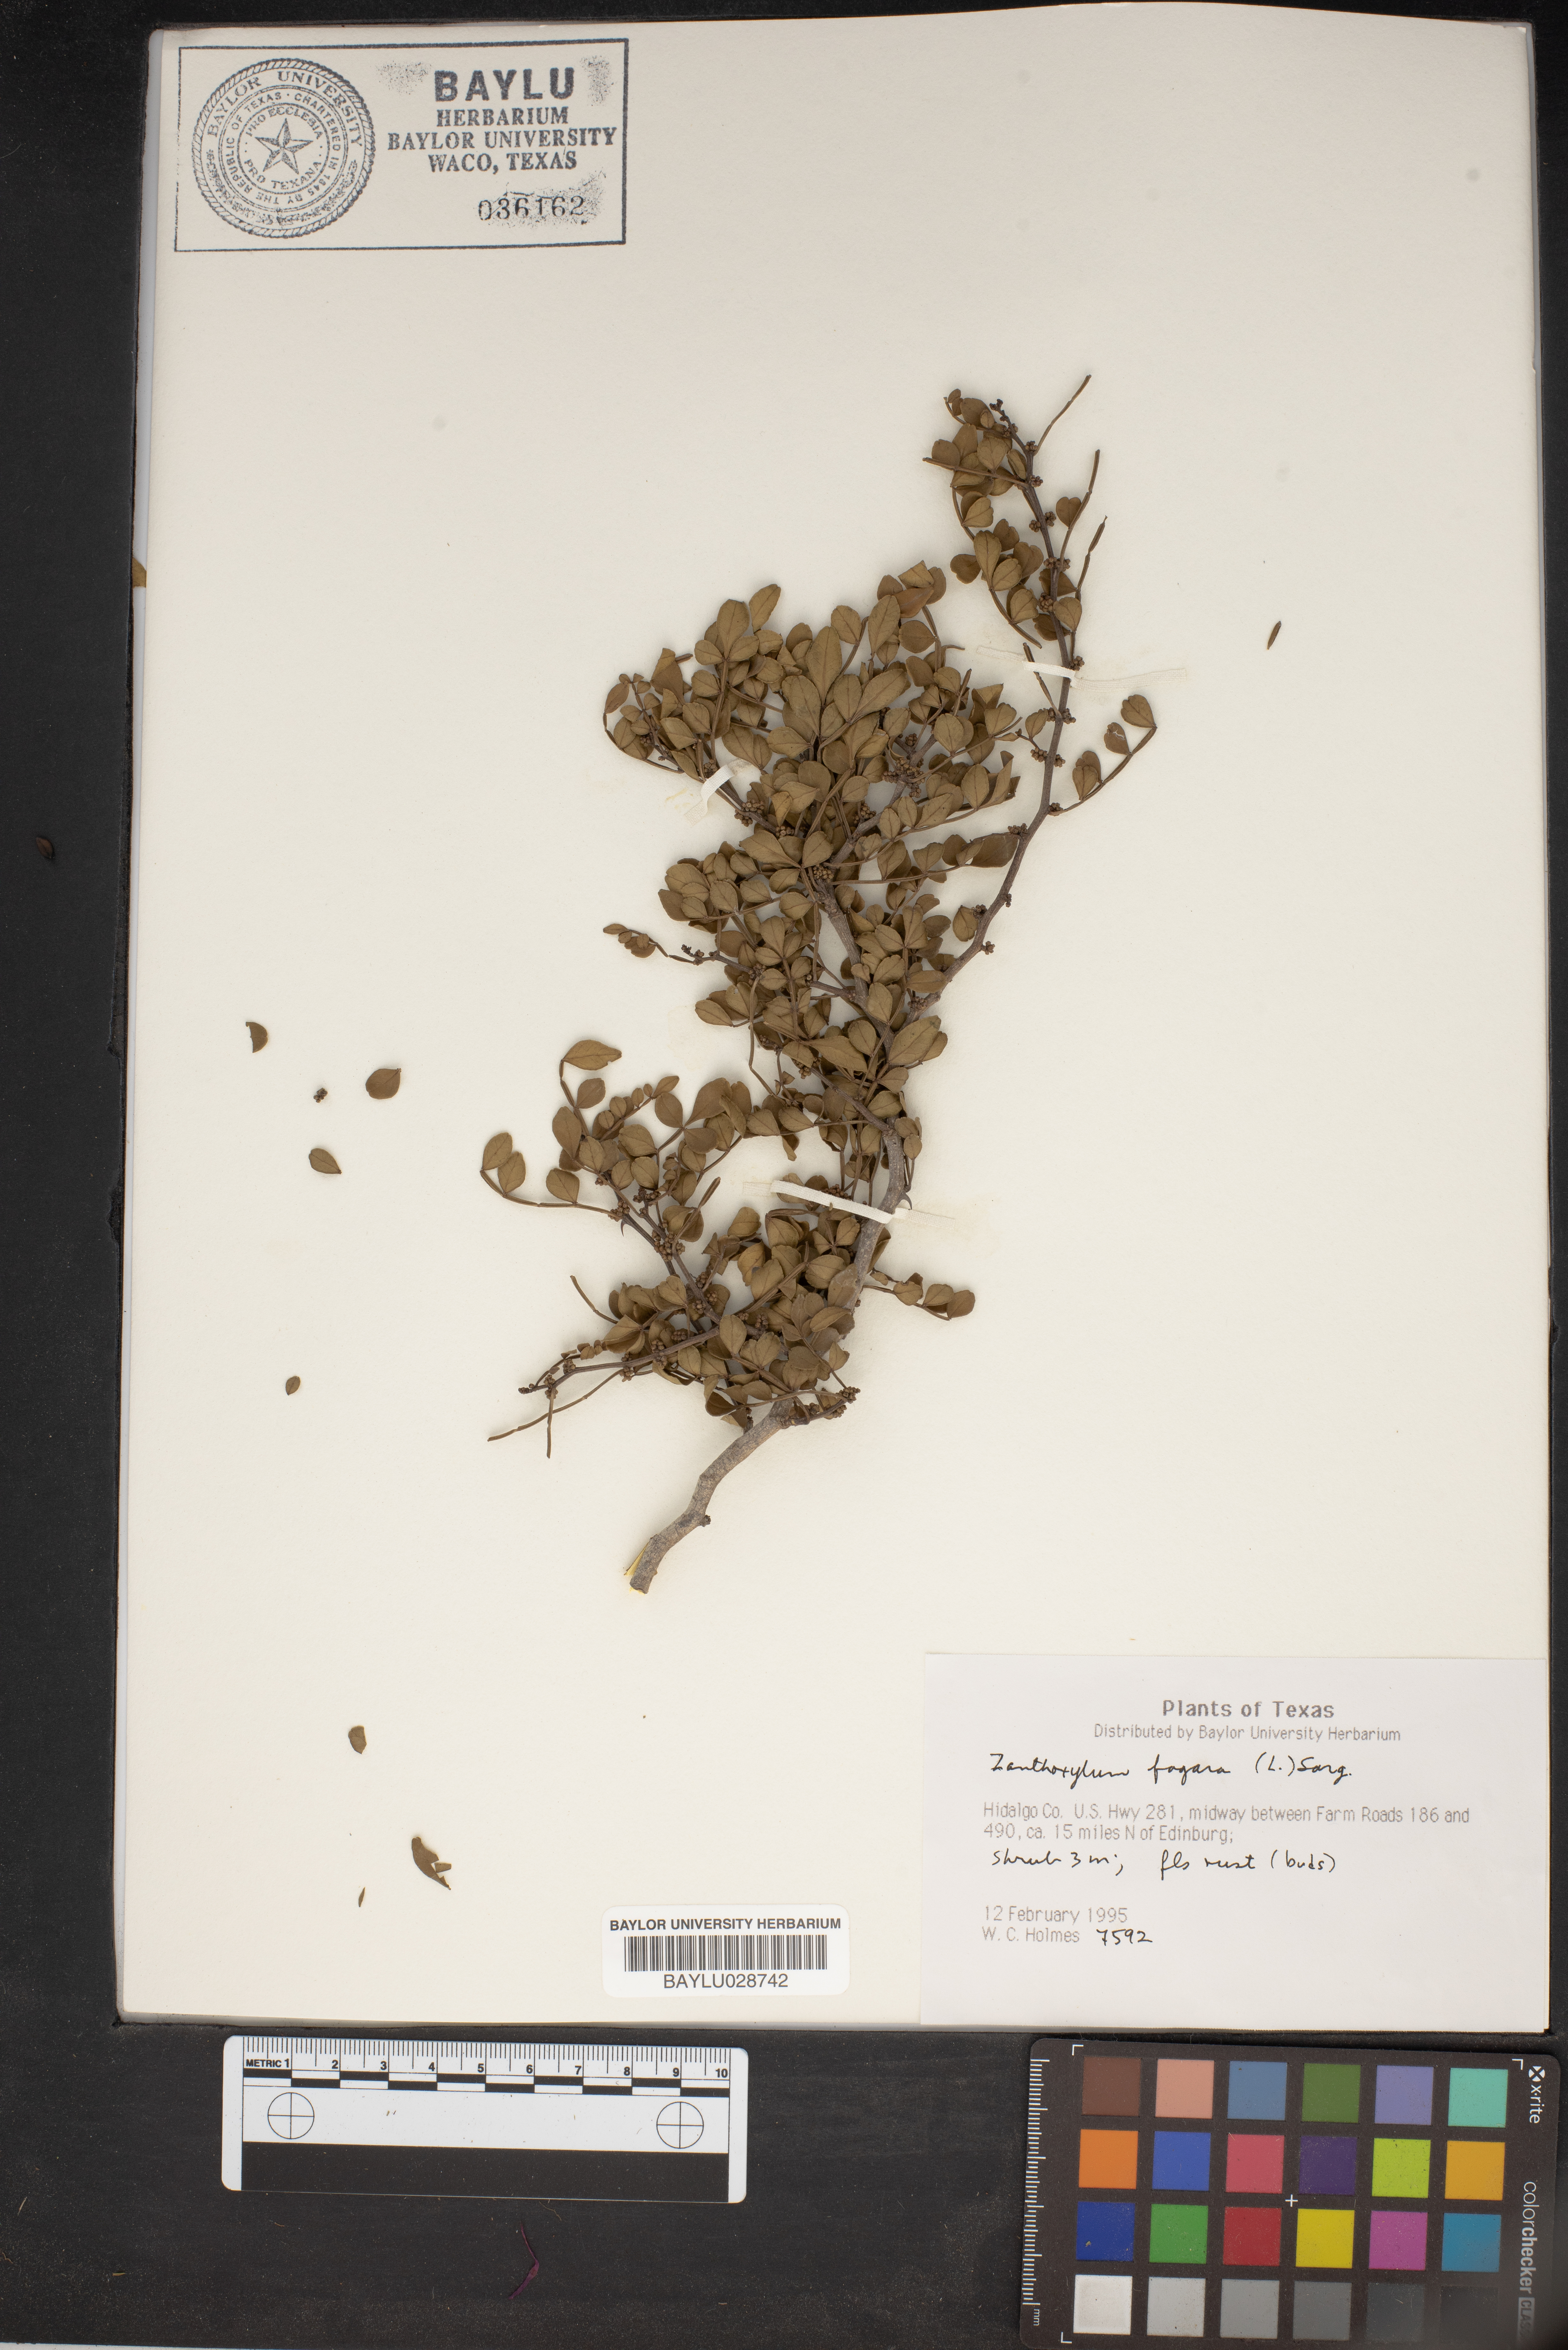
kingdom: Plantae
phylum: Tracheophyta
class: Magnoliopsida
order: Sapindales
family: Rutaceae
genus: Zanthoxylum
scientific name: Zanthoxylum fagara
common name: Lime prickly-ash
